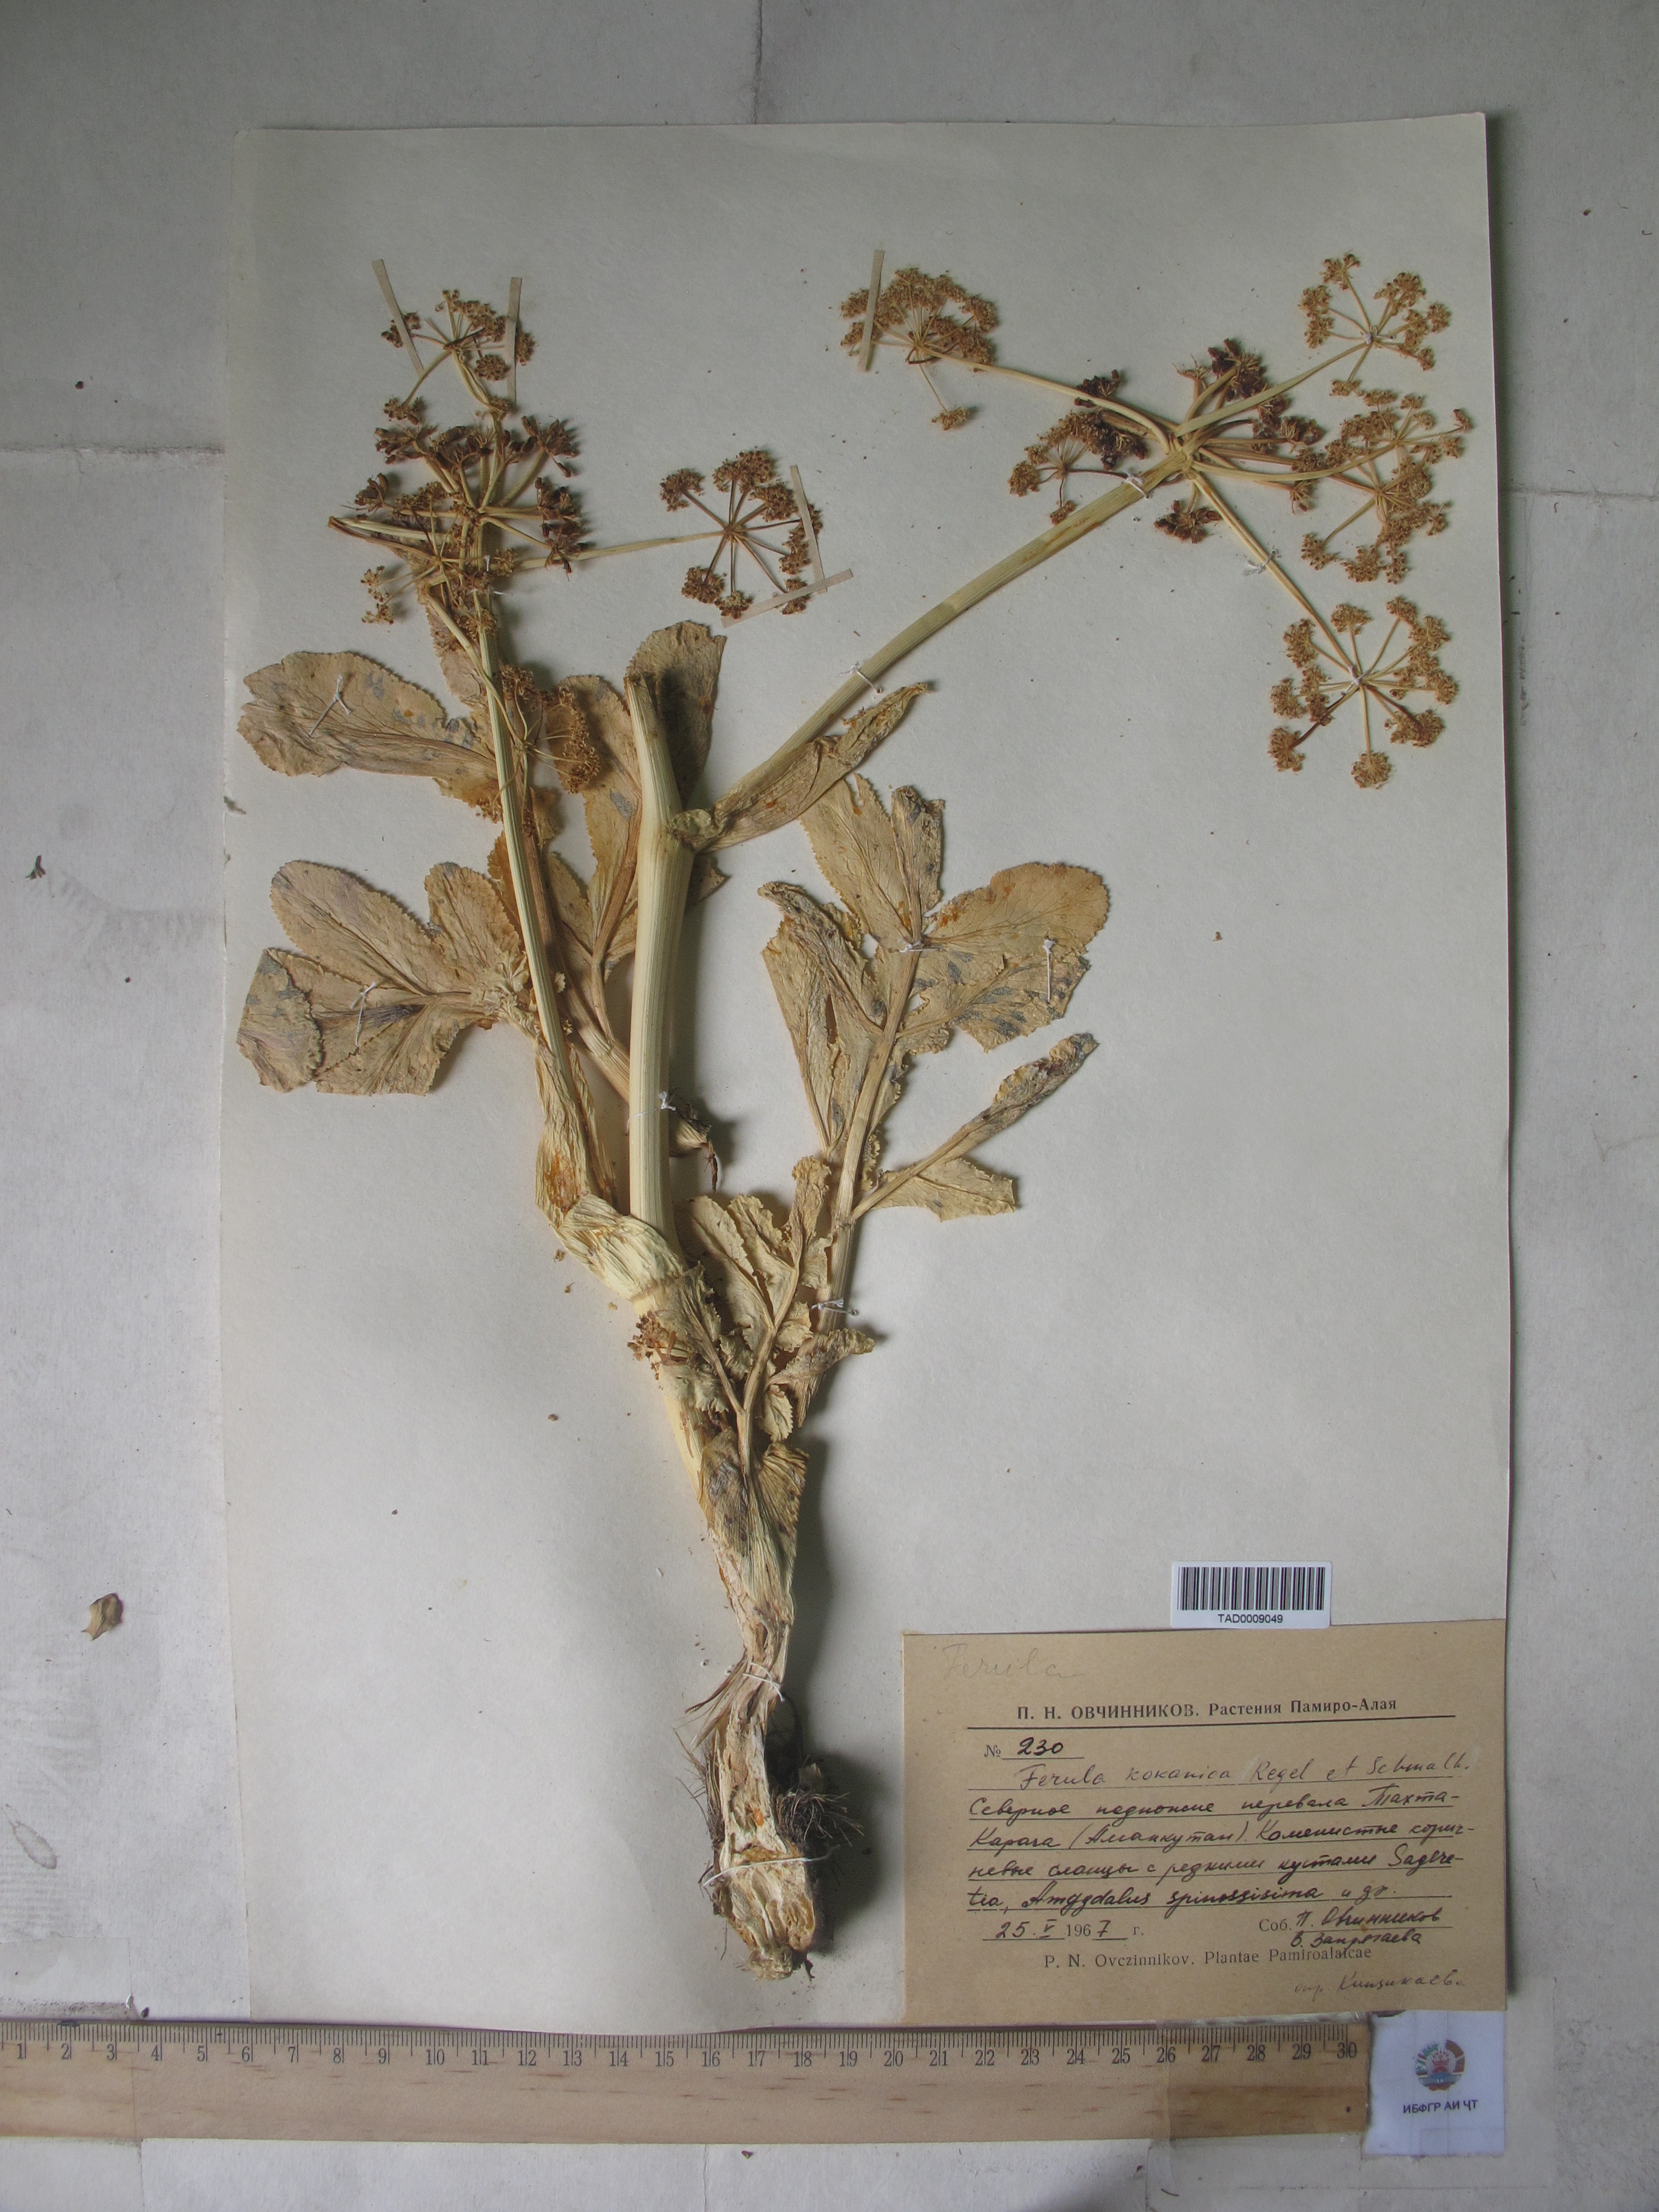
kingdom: Plantae
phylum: Tracheophyta
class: Magnoliopsida
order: Apiales
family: Apiaceae
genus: Ferula
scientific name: Ferula kokanica
